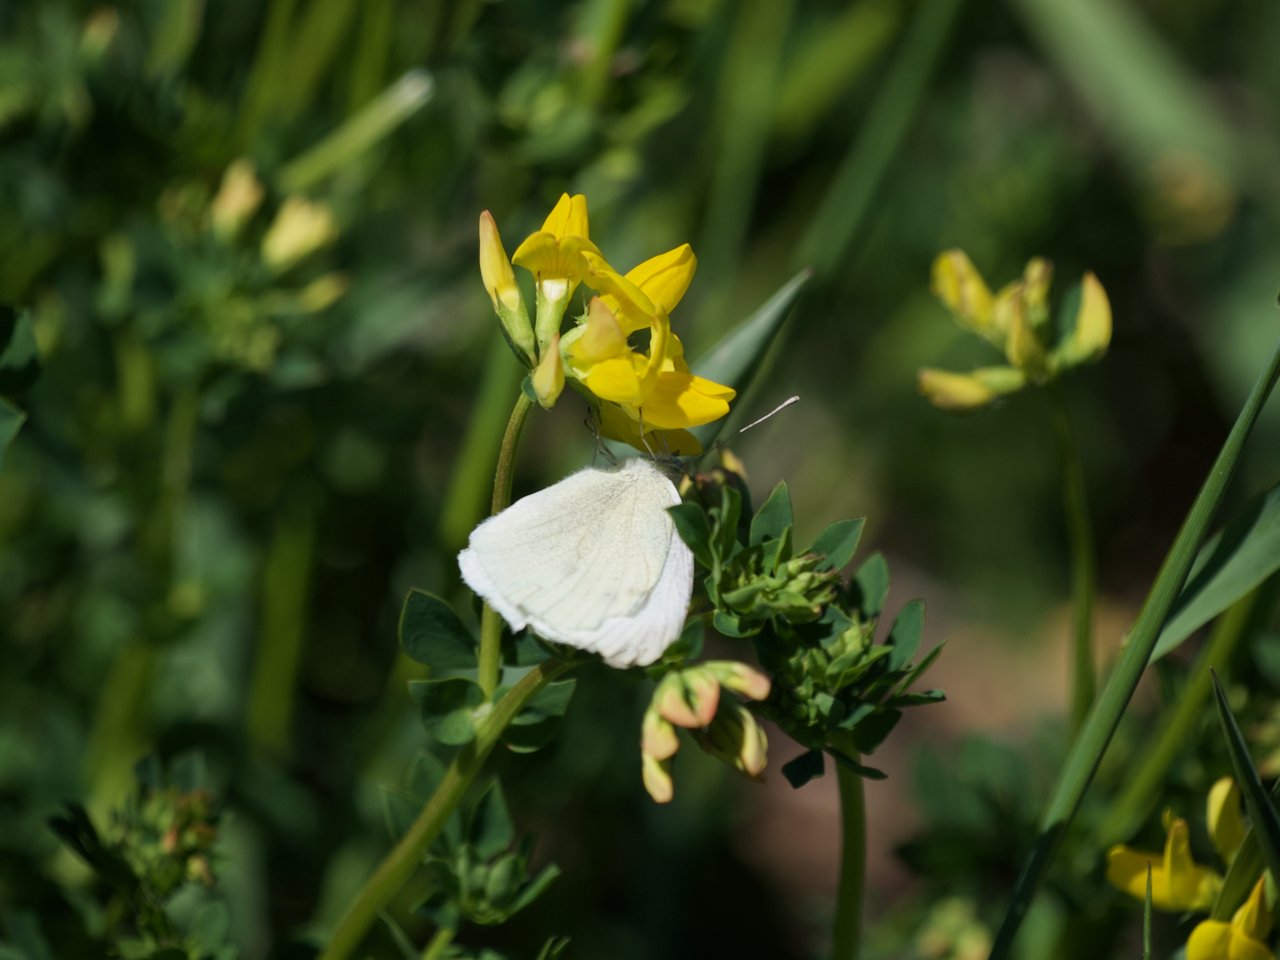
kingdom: Animalia
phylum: Arthropoda
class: Insecta
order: Lepidoptera
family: Pieridae
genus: Pieris
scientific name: Pieris rapae
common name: Cabbage White
